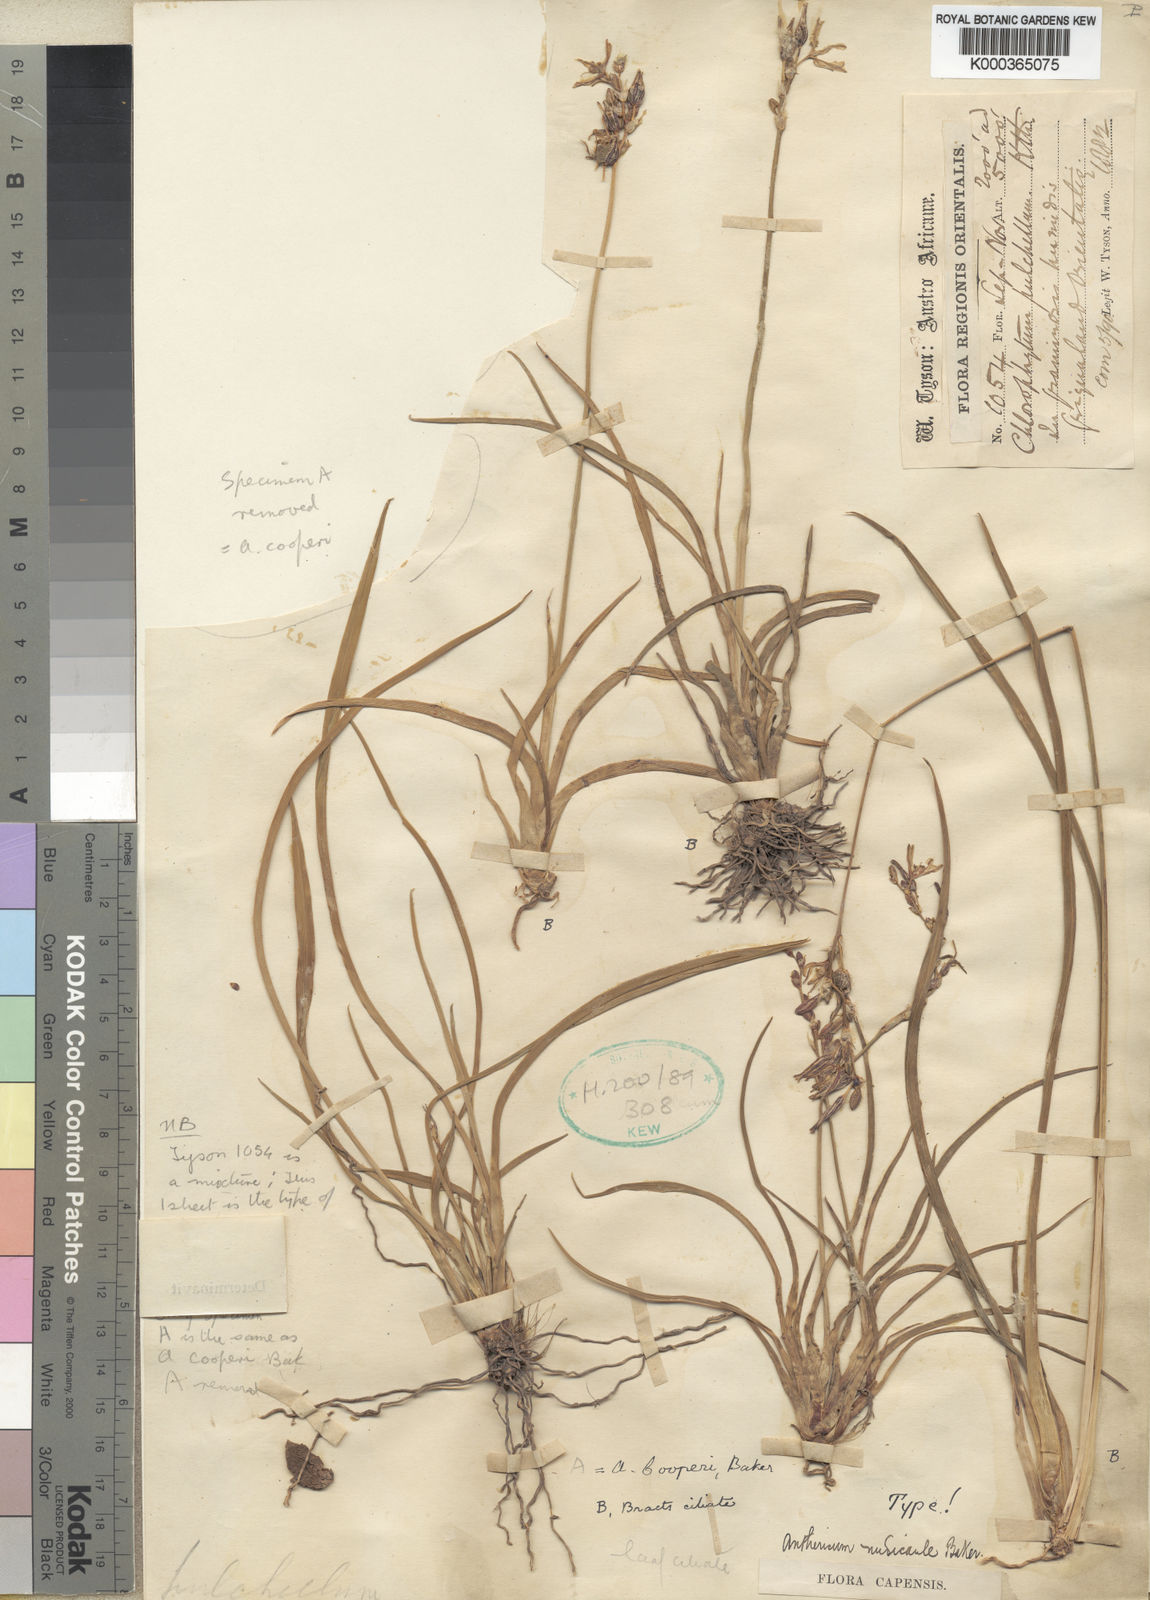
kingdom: Plantae
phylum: Tracheophyta
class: Liliopsida
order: Asparagales
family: Asparagaceae
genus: Chlorophytum
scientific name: Chlorophytum cooperi
